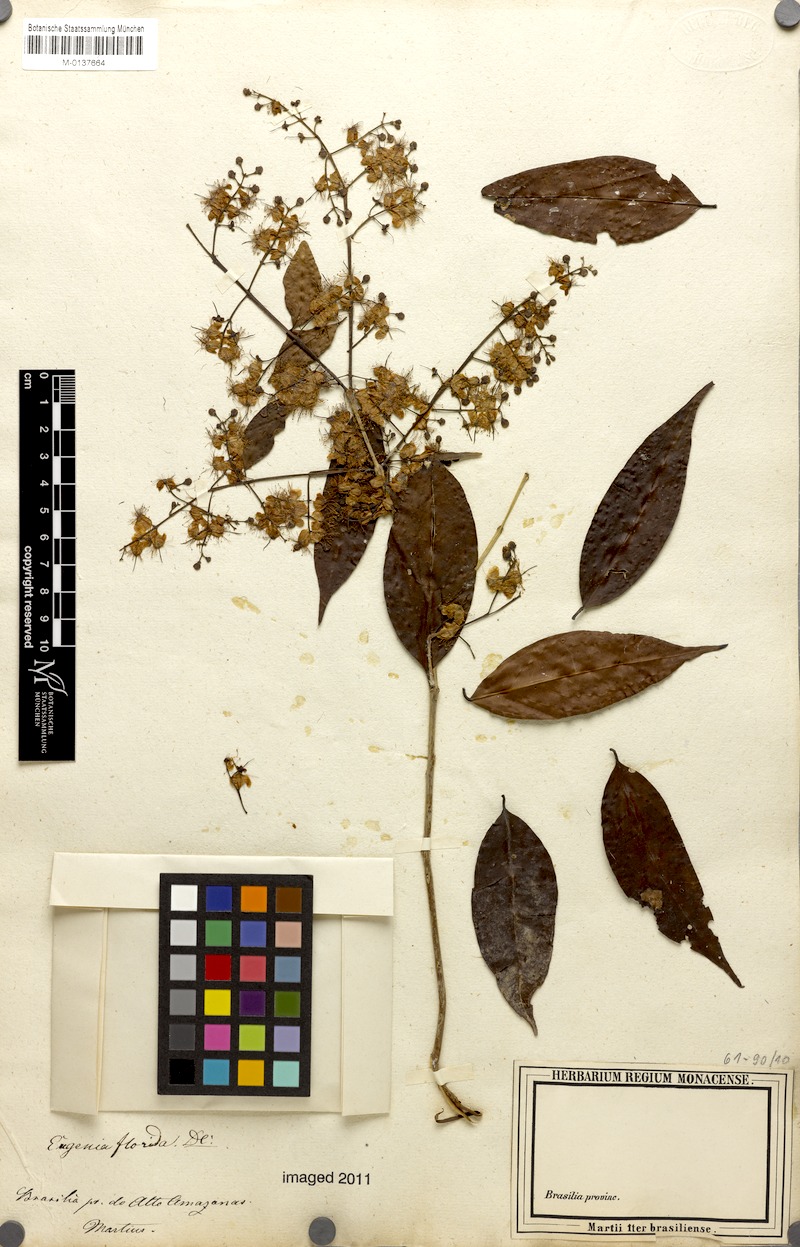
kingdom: Plantae
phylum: Tracheophyta
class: Magnoliopsida
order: Myrtales
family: Myrtaceae
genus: Eugenia
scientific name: Eugenia florida
